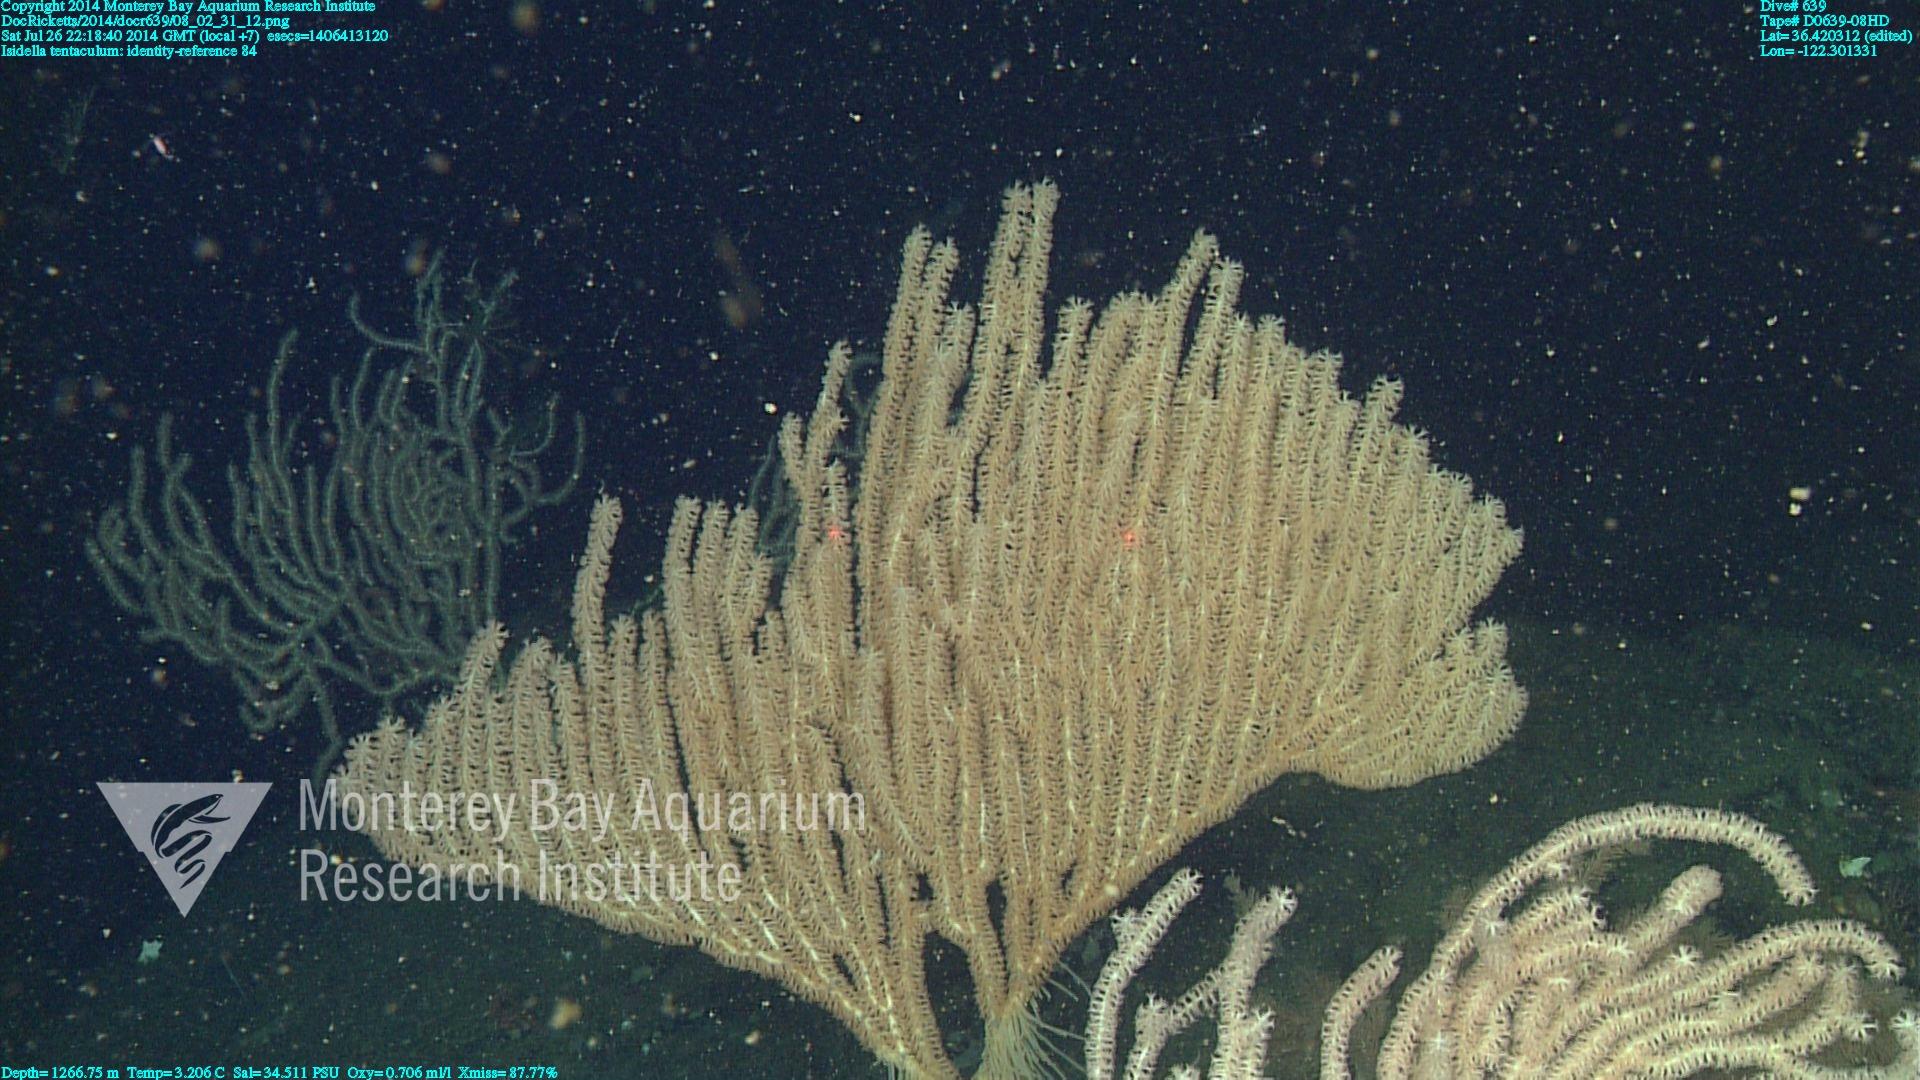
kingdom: Animalia
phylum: Cnidaria
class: Anthozoa
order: Scleralcyonacea
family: Keratoisididae
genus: Isidella
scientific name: Isidella tentaculum
